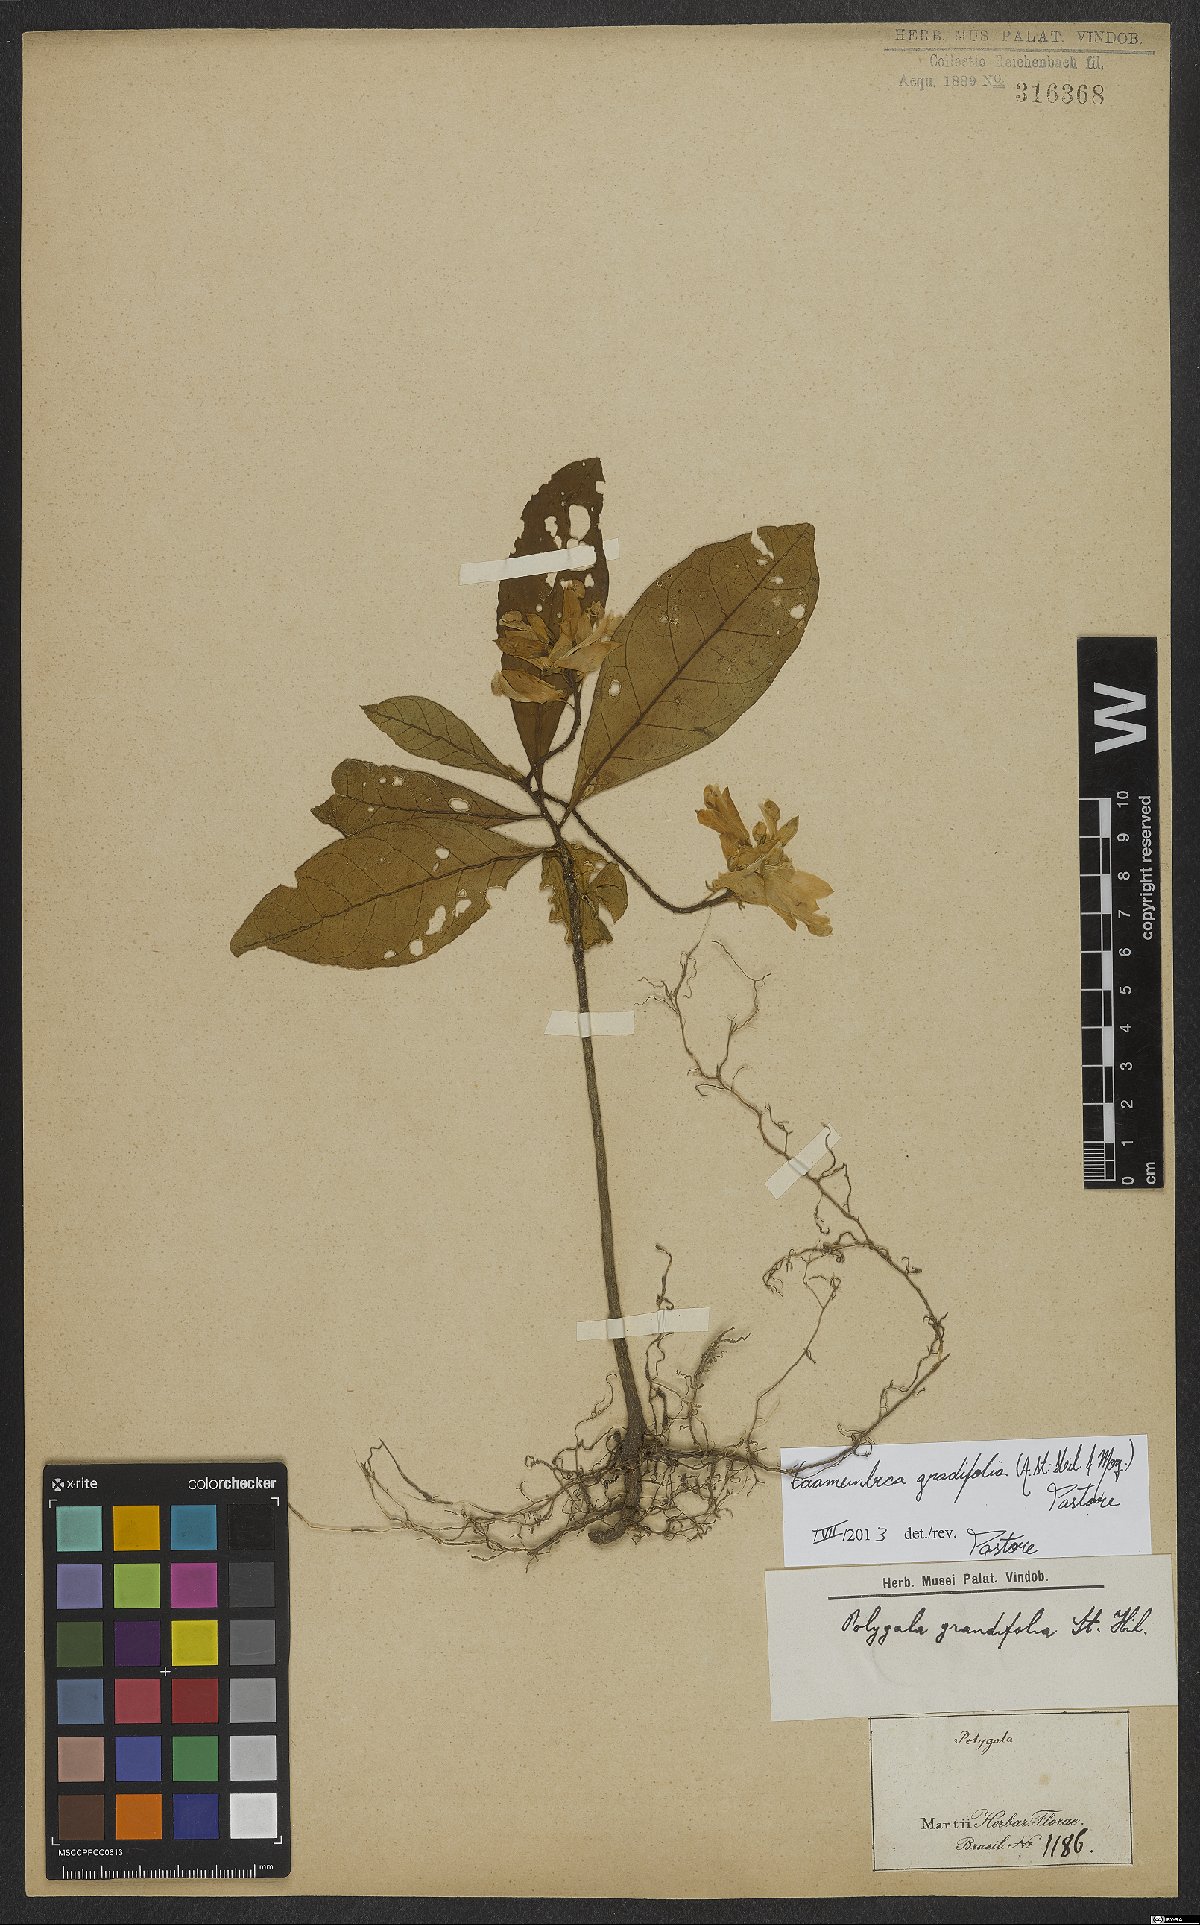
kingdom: Plantae
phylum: Tracheophyta
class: Magnoliopsida
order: Fabales
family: Polygalaceae
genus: Caamembeca
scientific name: Caamembeca grandifolia
